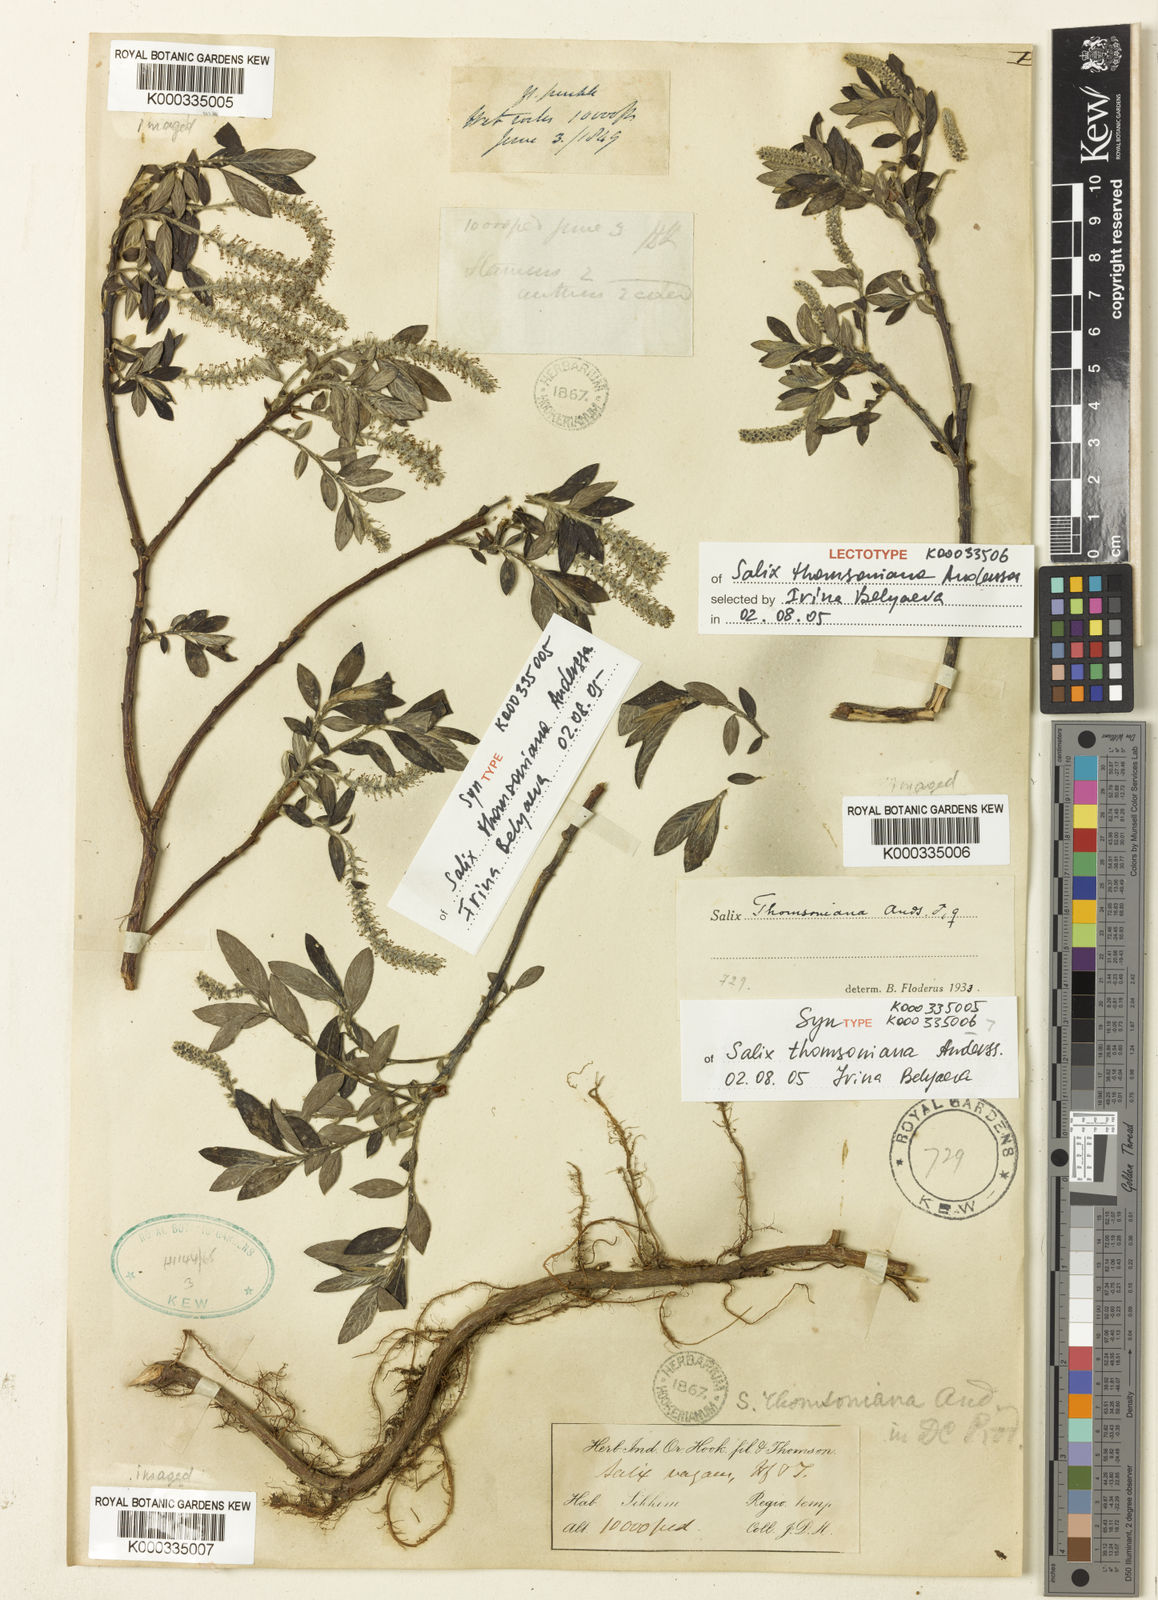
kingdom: Plantae
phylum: Tracheophyta
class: Magnoliopsida
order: Malpighiales
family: Salicaceae
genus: Salix
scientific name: Salix thomsoniana
